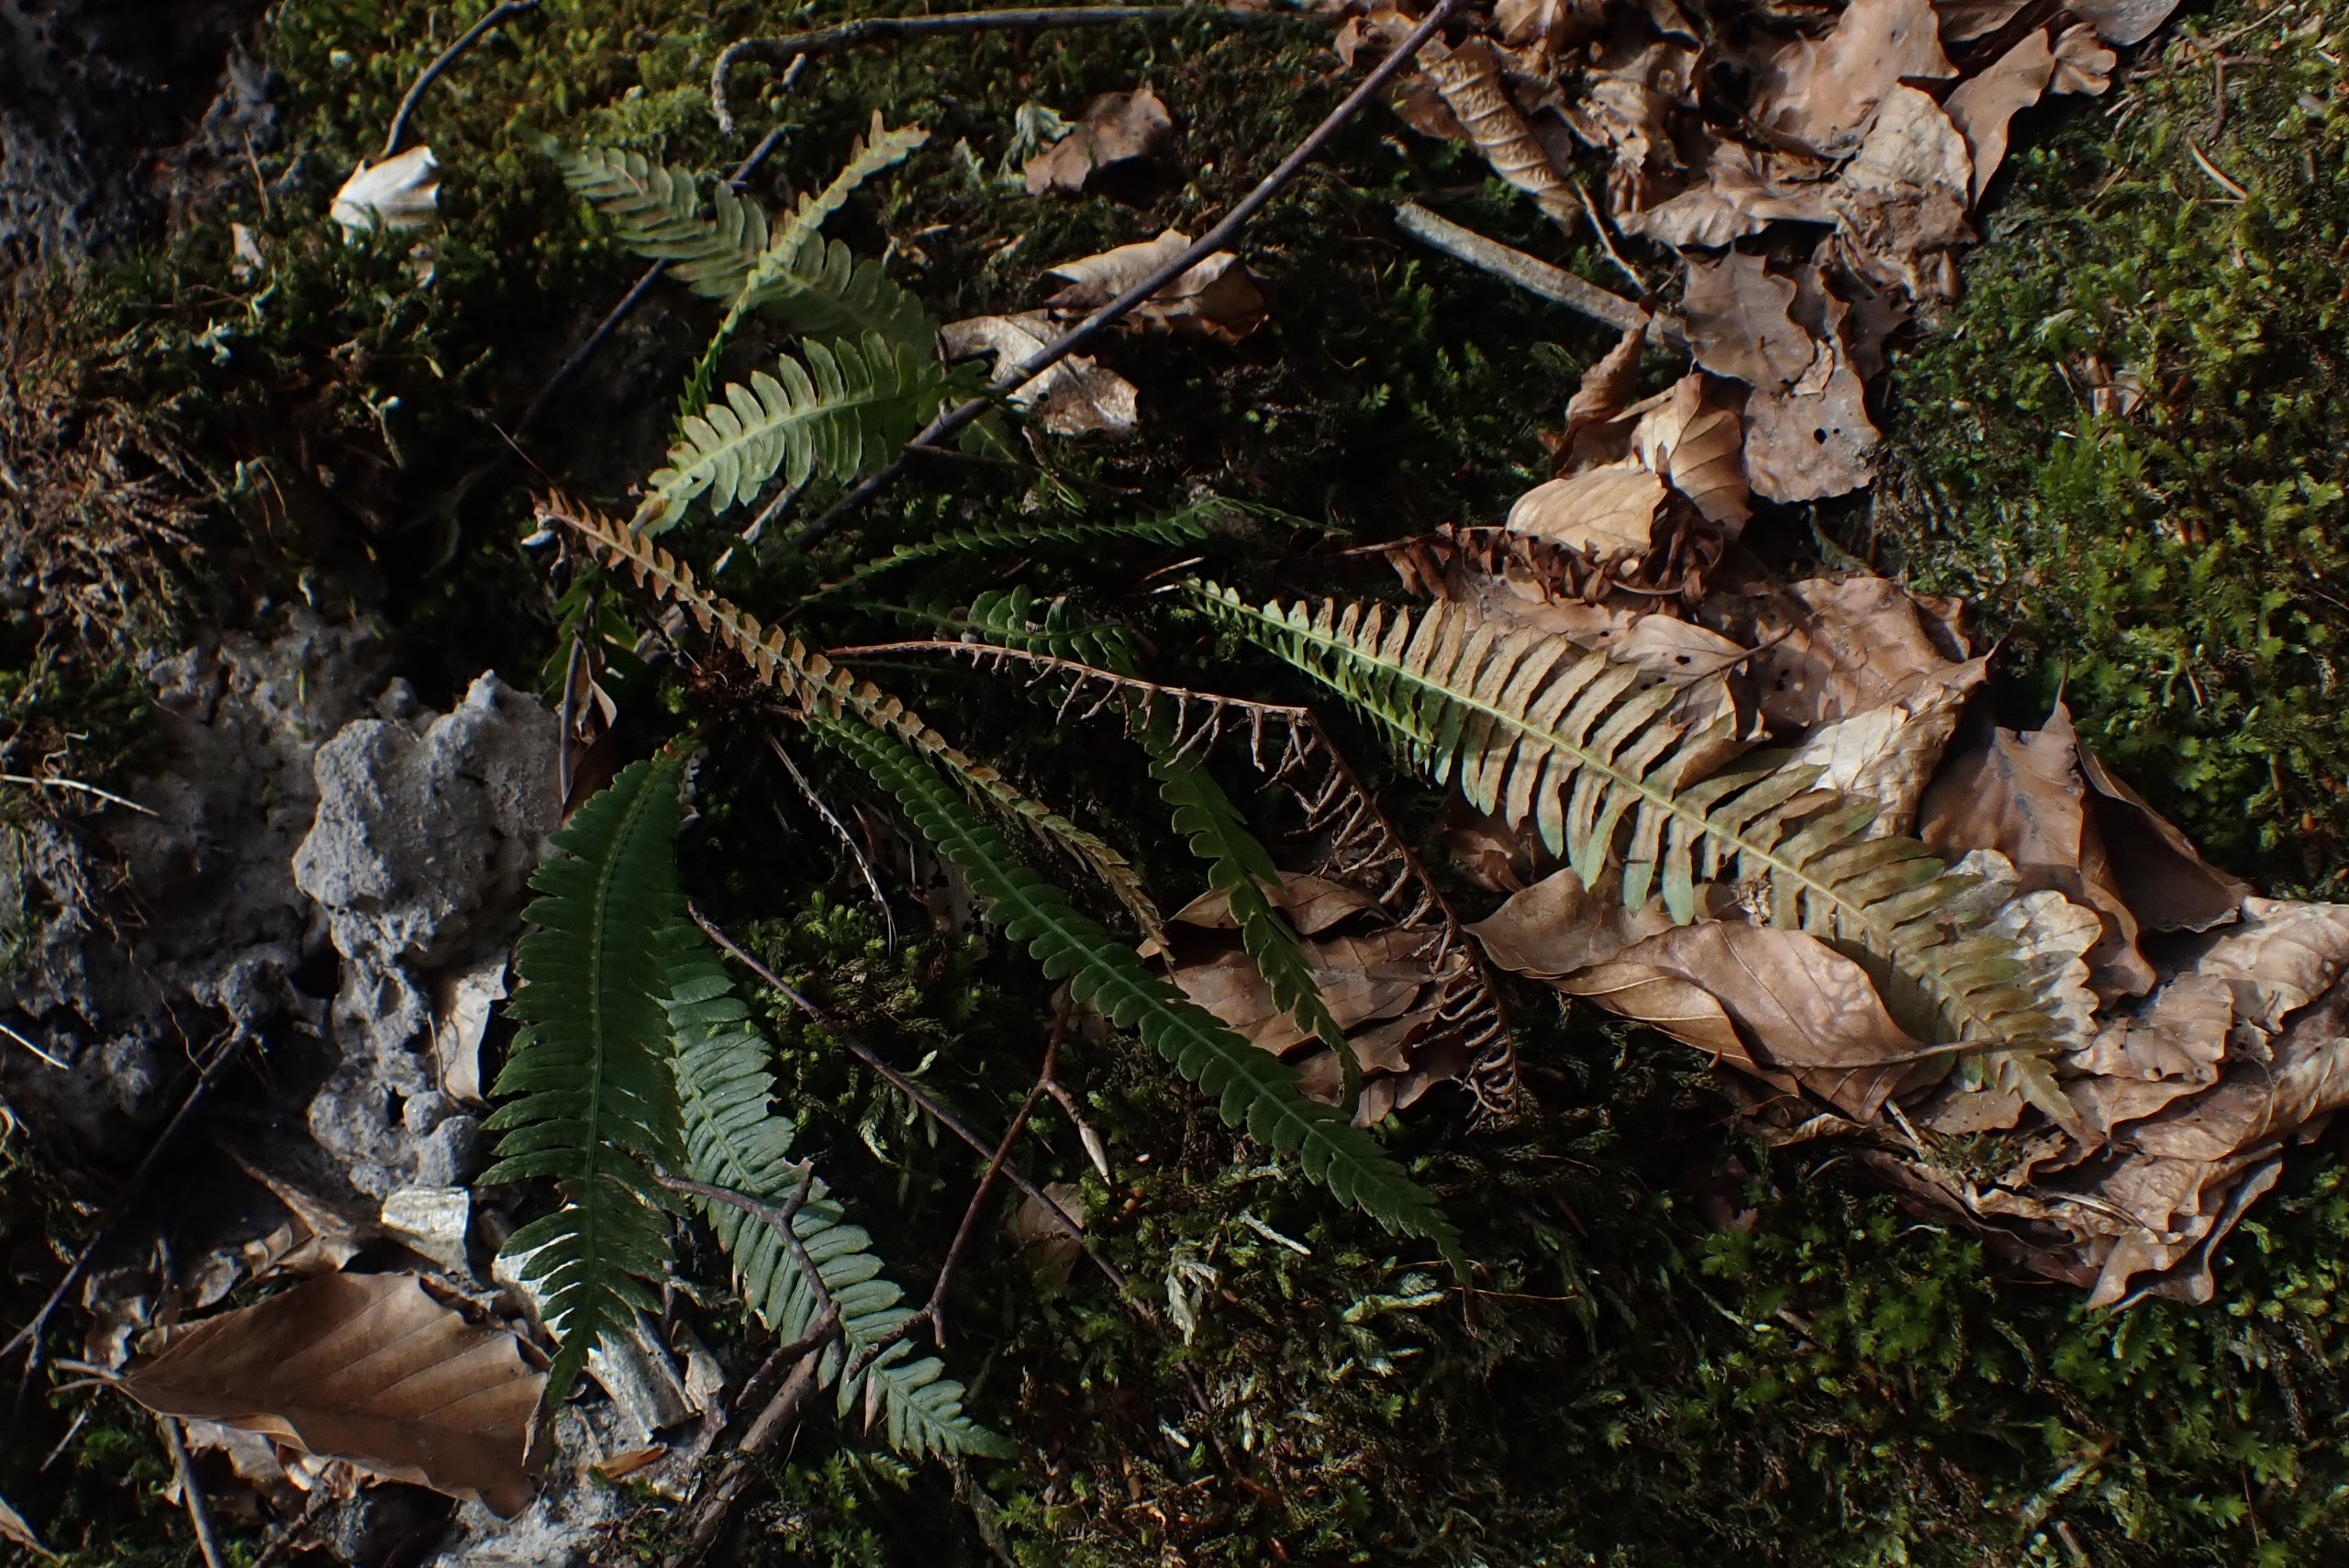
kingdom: Plantae
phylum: Tracheophyta
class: Polypodiopsida
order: Polypodiales
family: Blechnaceae
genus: Struthiopteris
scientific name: Struthiopteris spicant
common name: Kambregne
